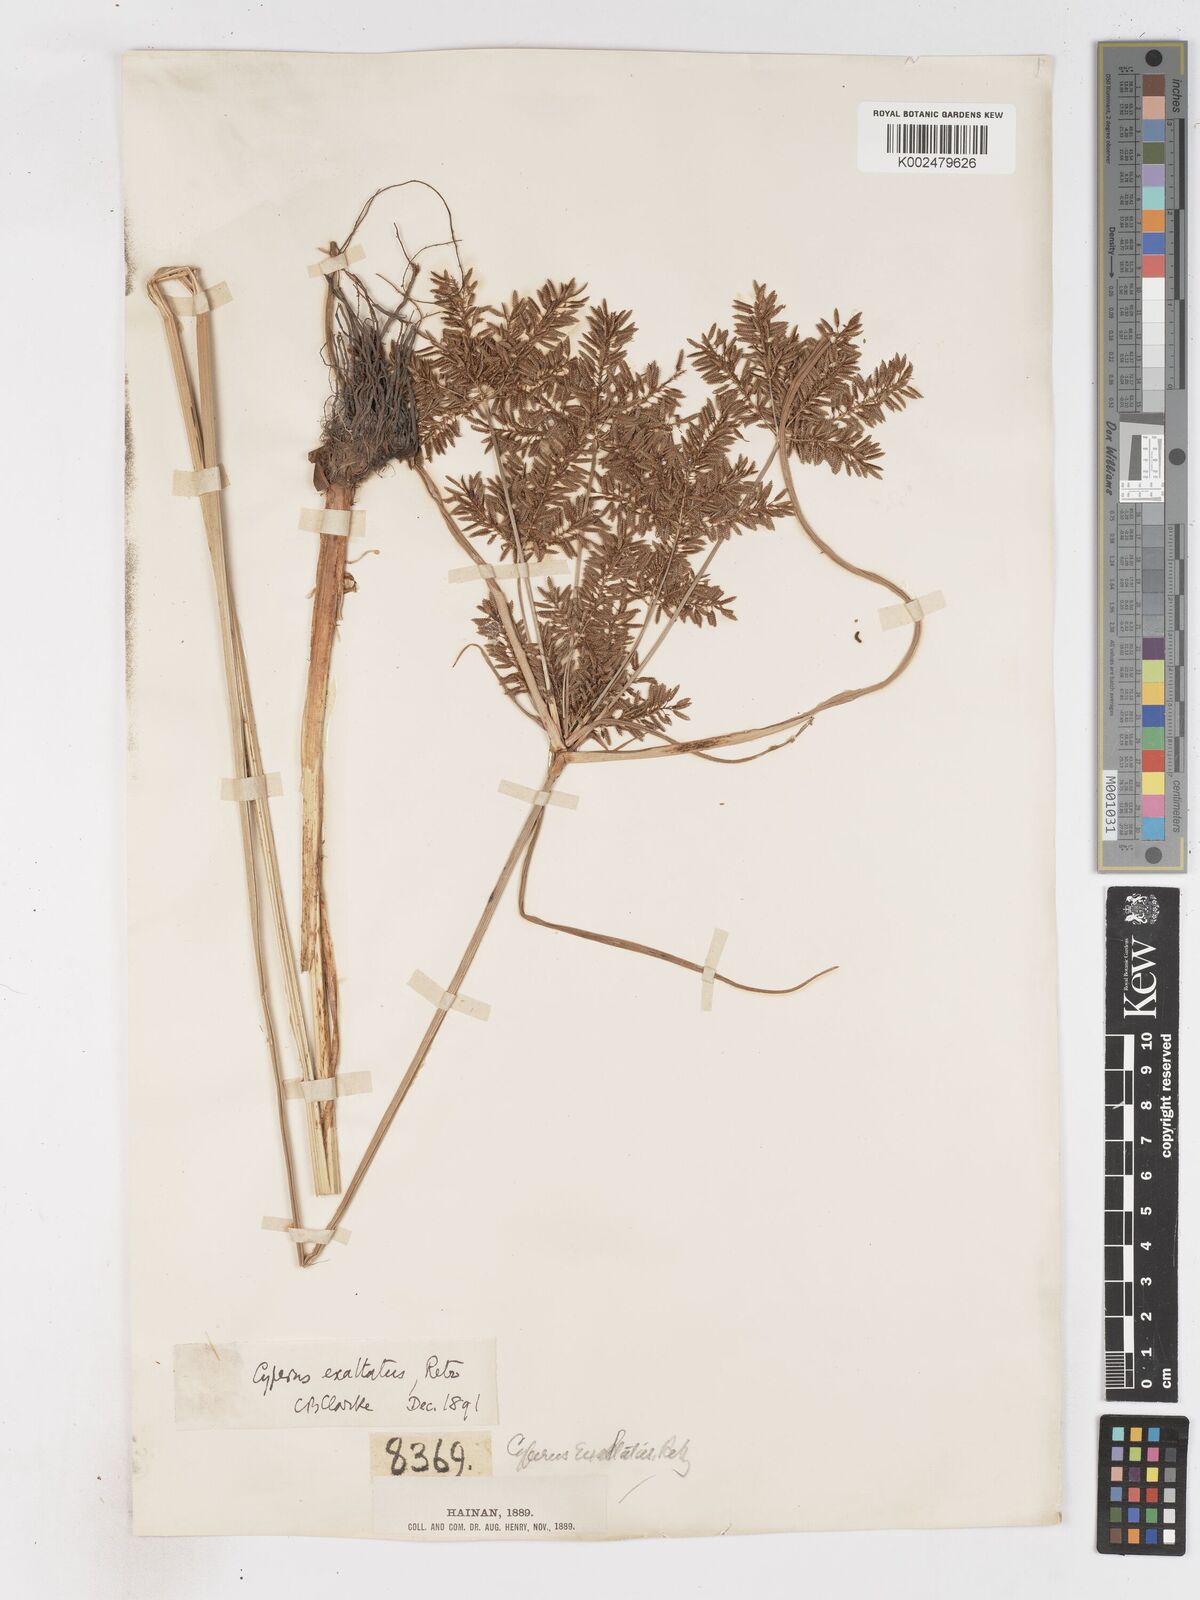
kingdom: Plantae
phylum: Tracheophyta
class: Liliopsida
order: Poales
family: Cyperaceae
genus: Cyperus
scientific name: Cyperus exaltatus
